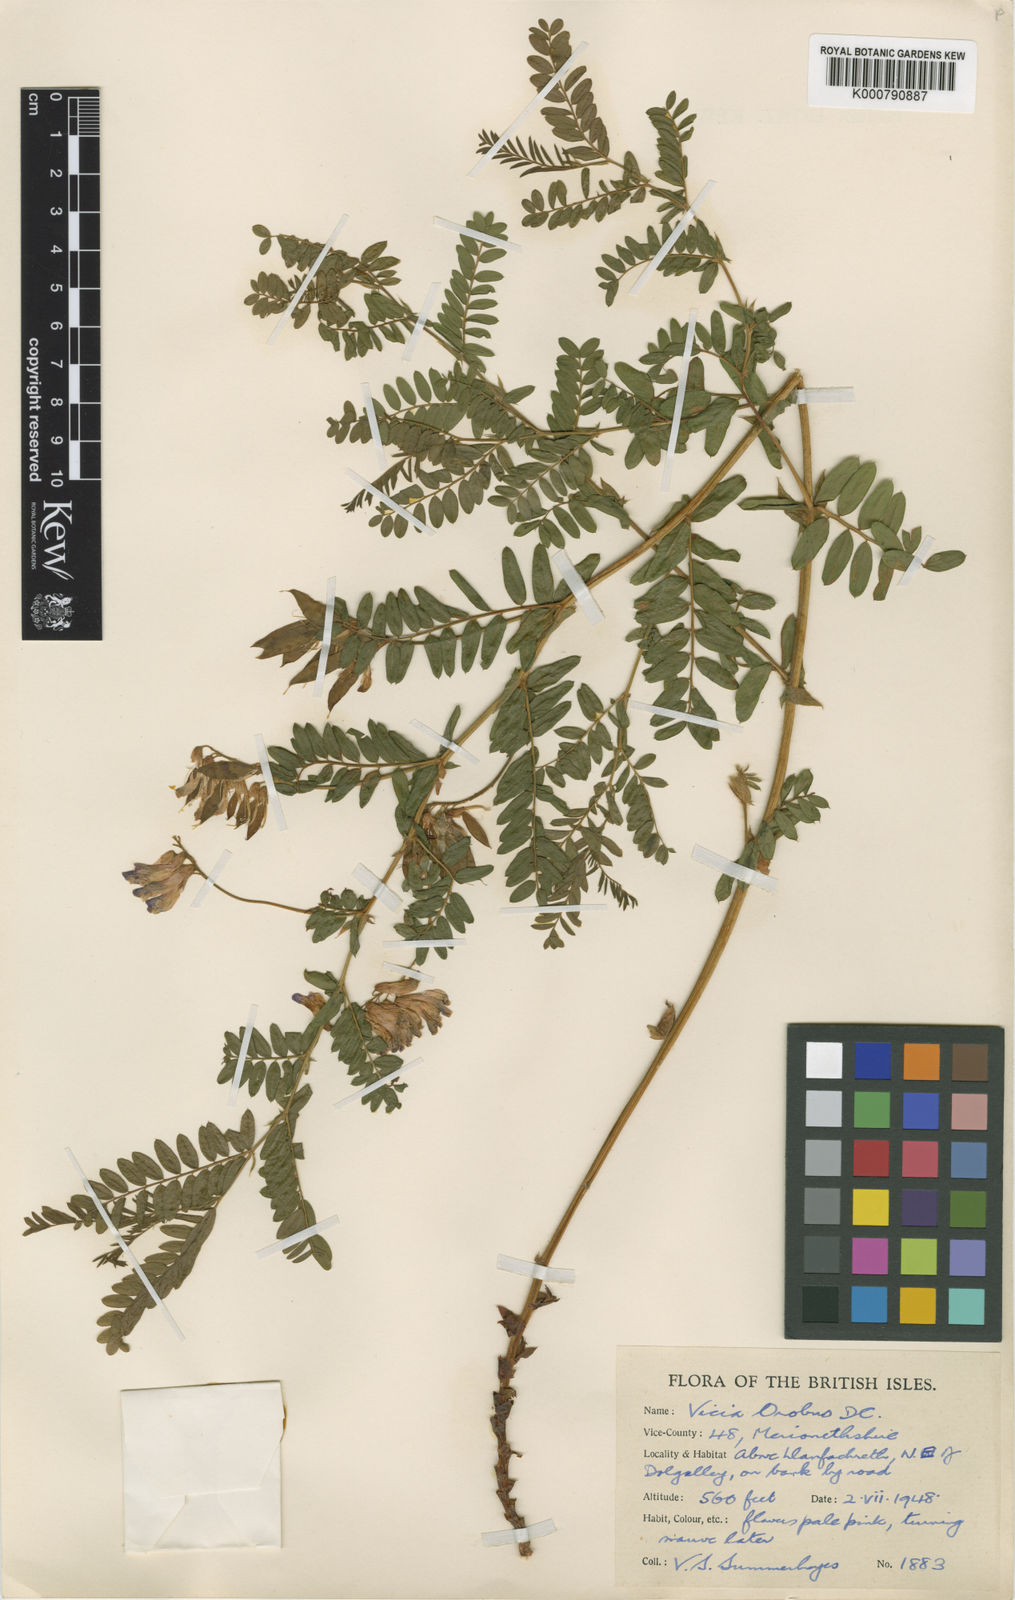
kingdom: Plantae
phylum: Tracheophyta
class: Magnoliopsida
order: Fabales
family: Fabaceae
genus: Vicia
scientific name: Vicia orobus
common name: Wood bitter-vetch
